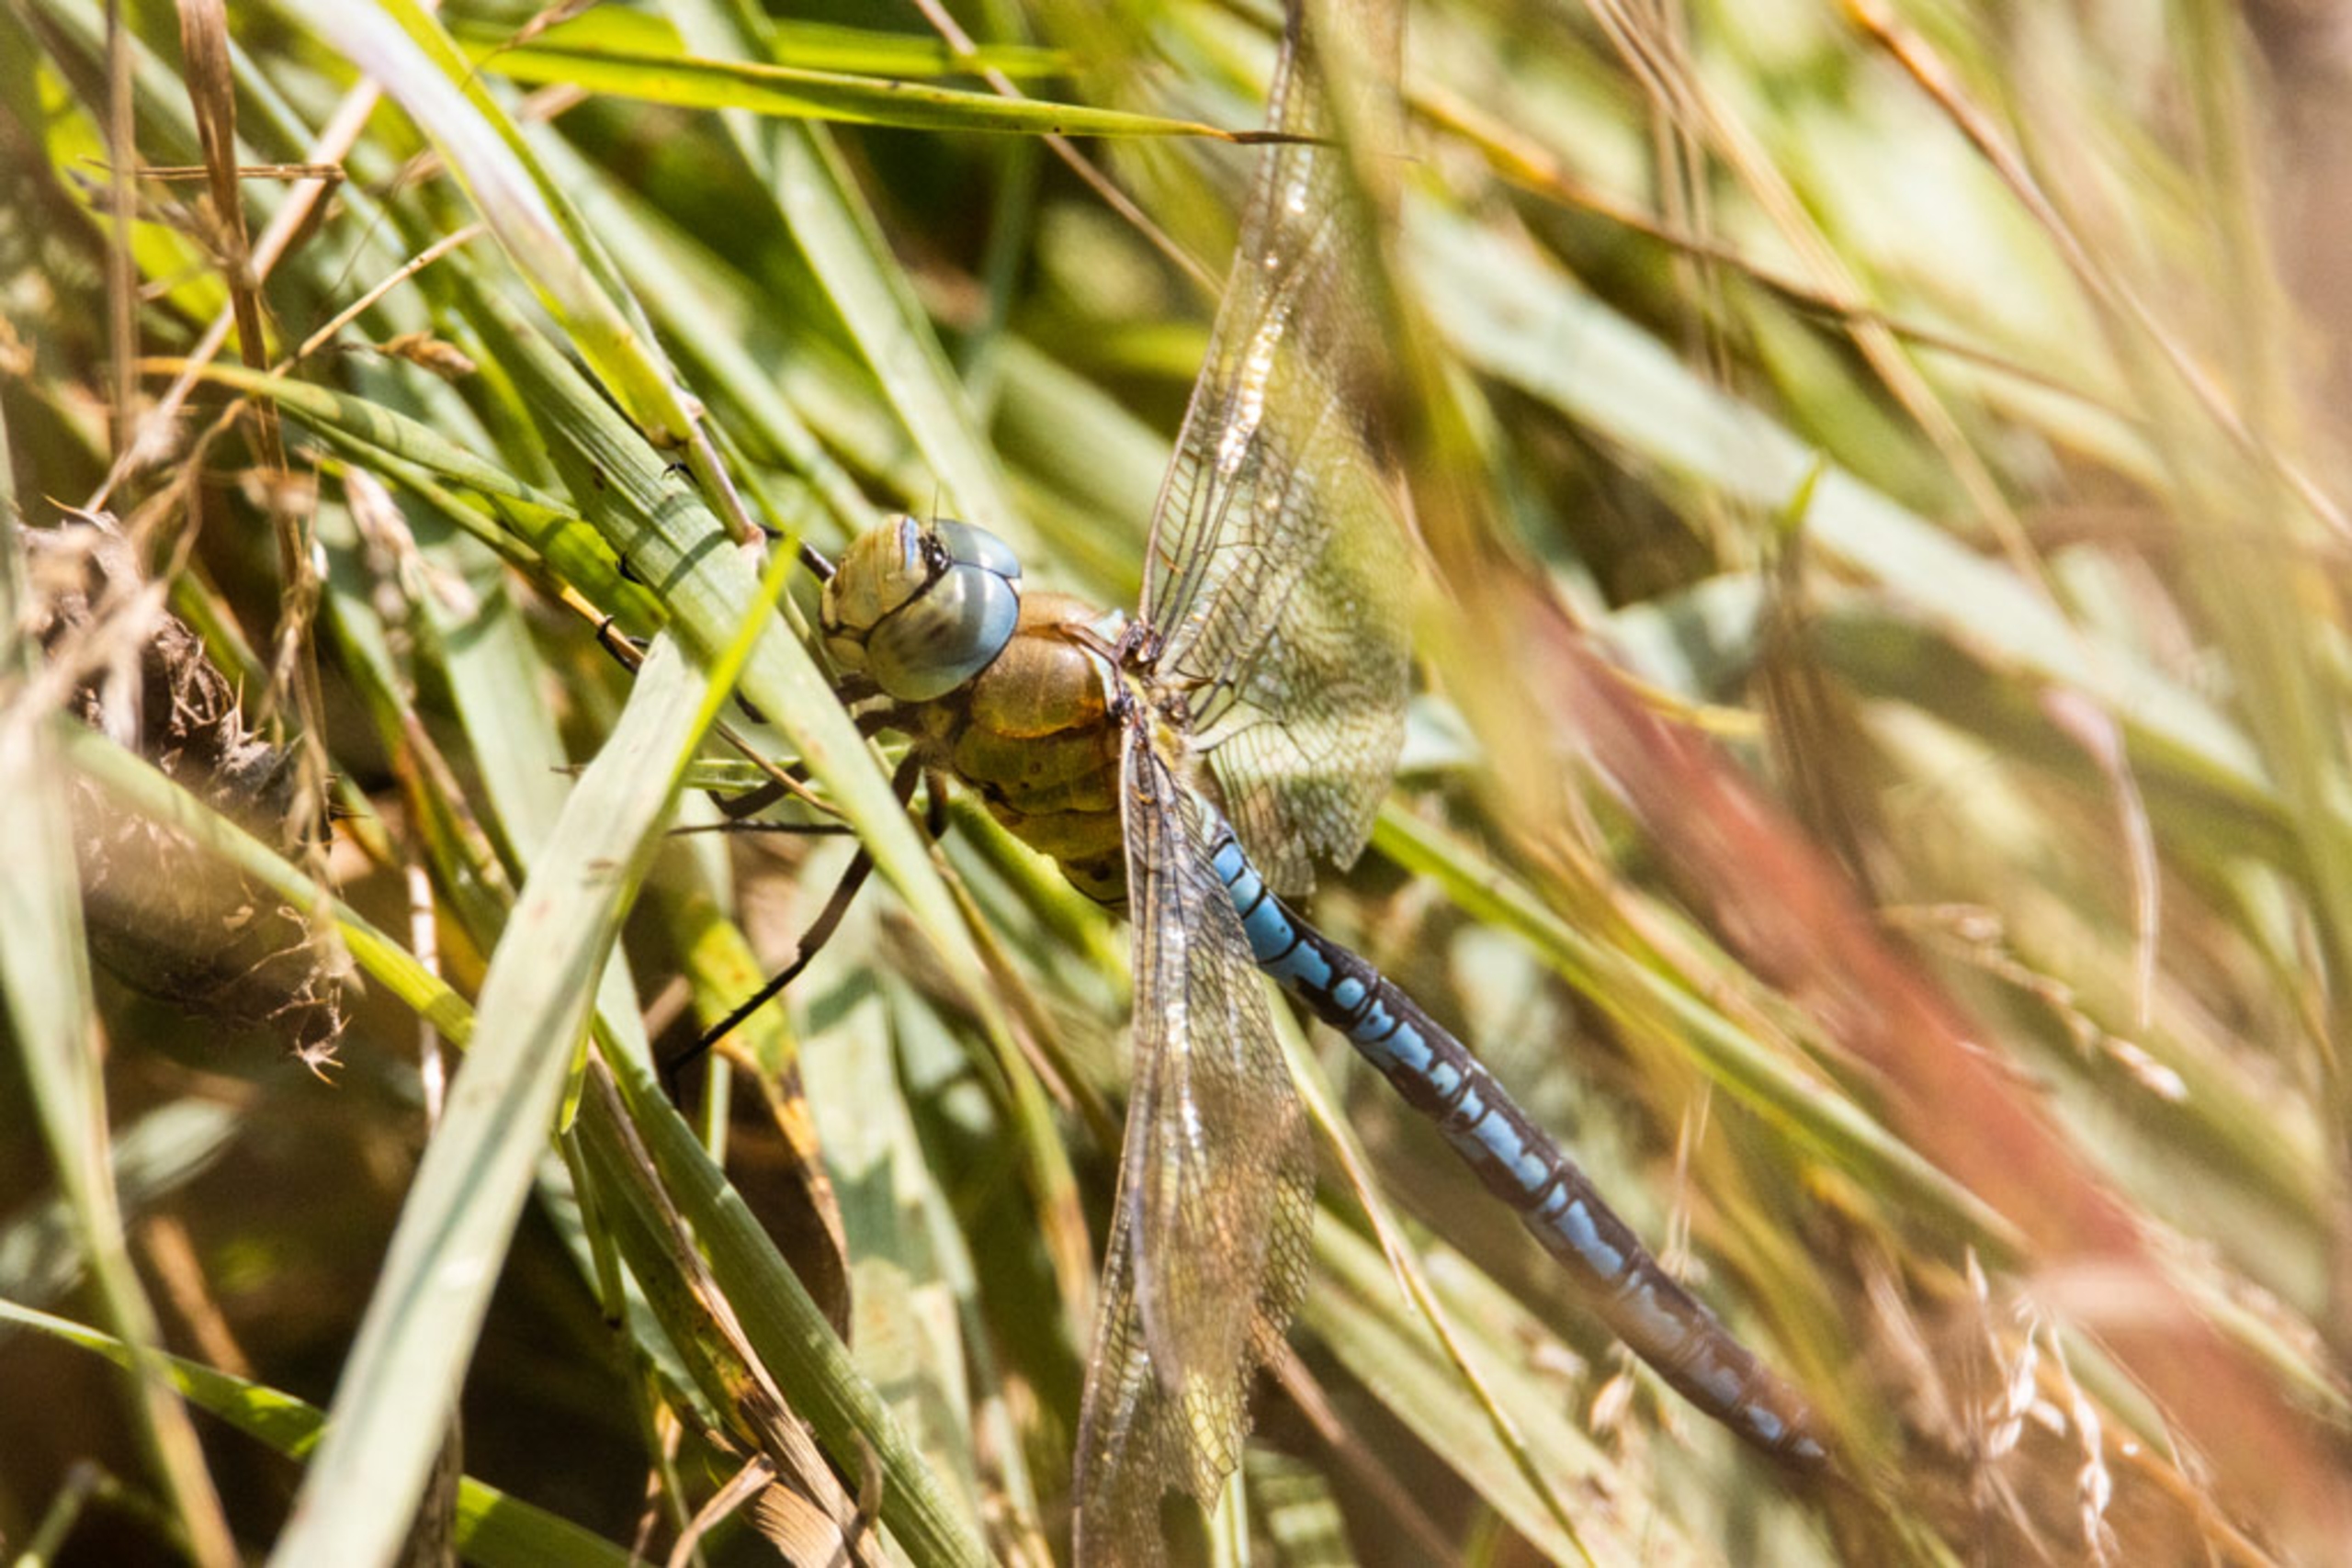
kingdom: Animalia
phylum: Arthropoda
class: Insecta
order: Odonata
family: Aeshnidae
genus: Anax
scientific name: Anax imperator
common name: Stor kejserguldsmed
